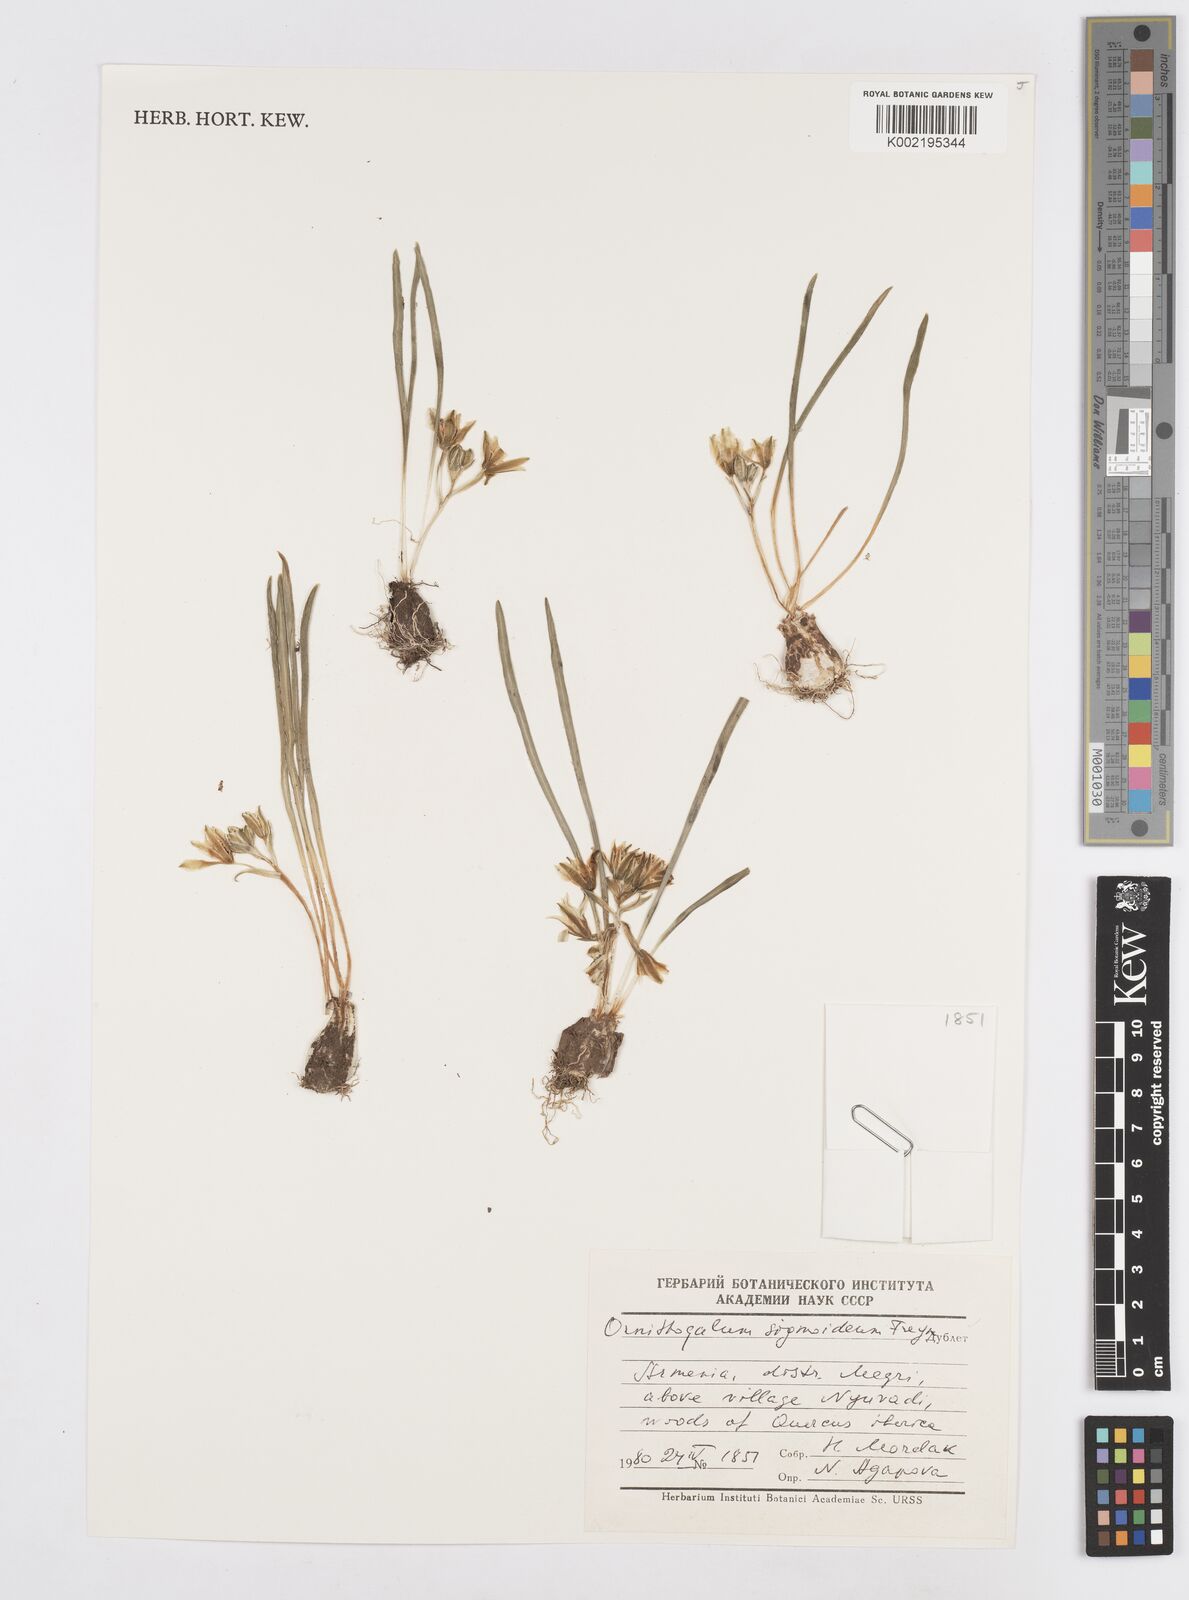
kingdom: Plantae
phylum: Tracheophyta
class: Liliopsida
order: Asparagales
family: Asparagaceae
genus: Ornithogalum
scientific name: Ornithogalum sigmoideum
